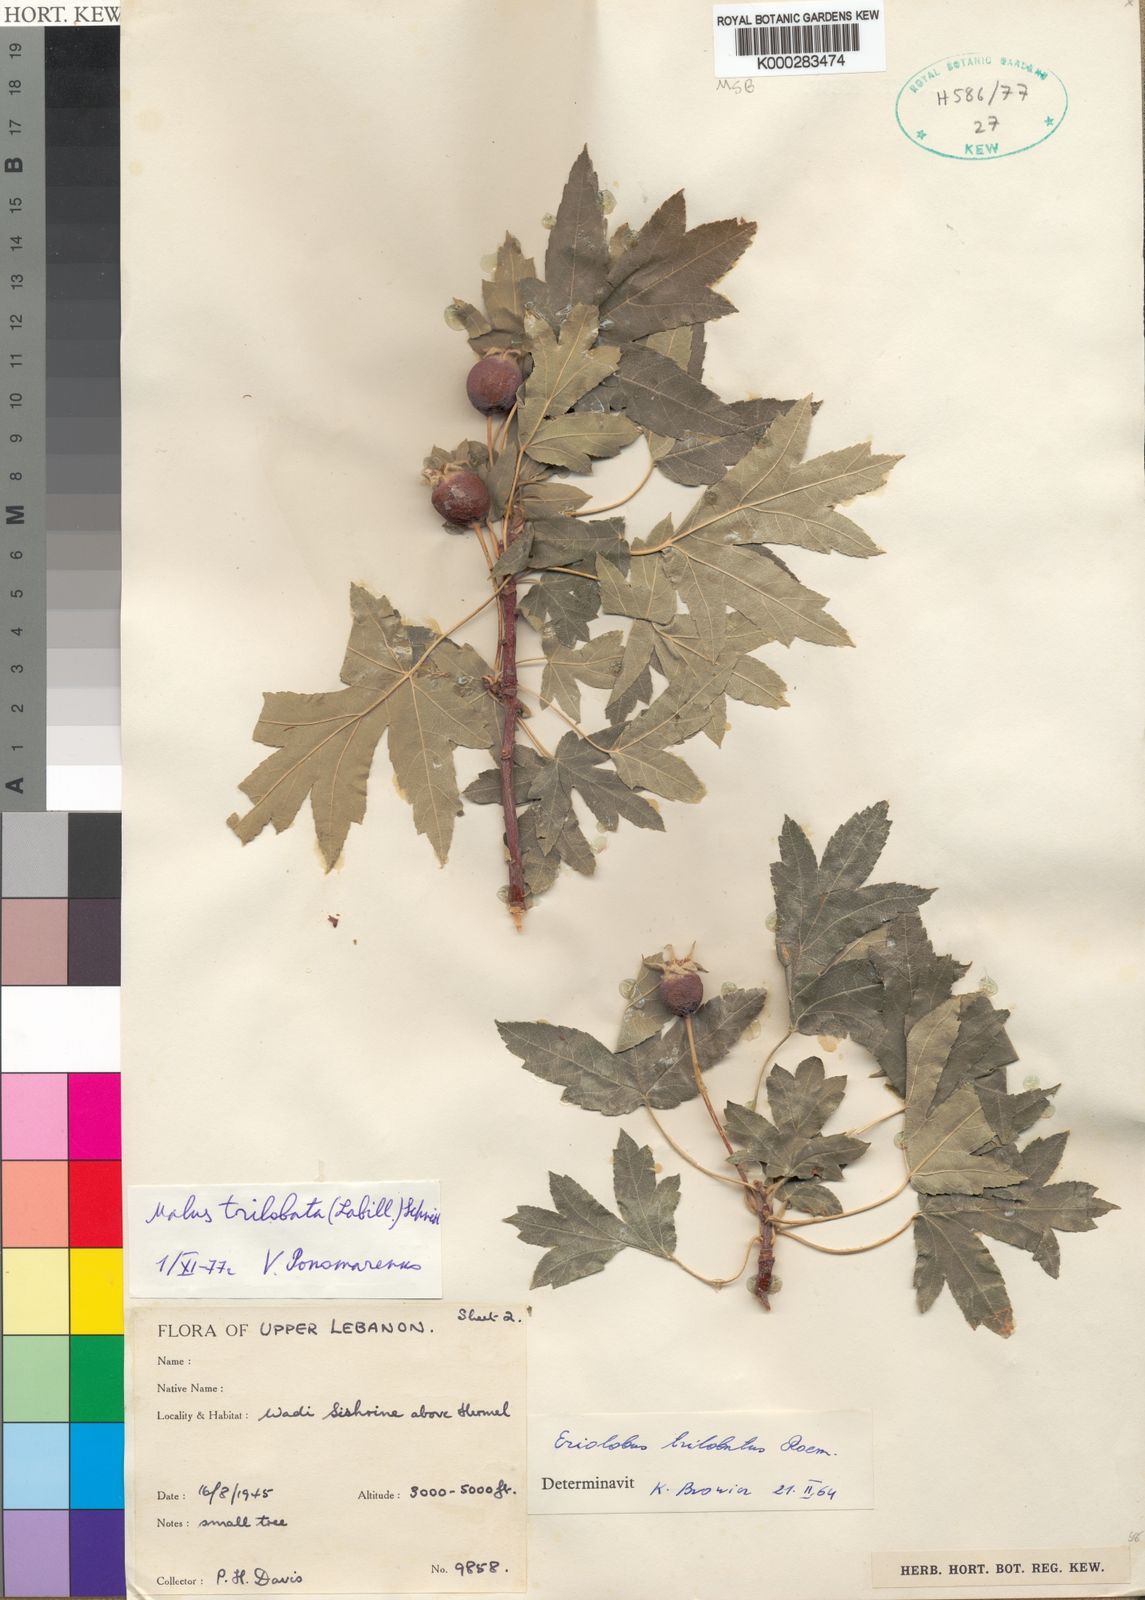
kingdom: Plantae
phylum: Tracheophyta
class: Magnoliopsida
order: Rosales
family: Rosaceae
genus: Eriolobus
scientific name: Eriolobus trilobatus
